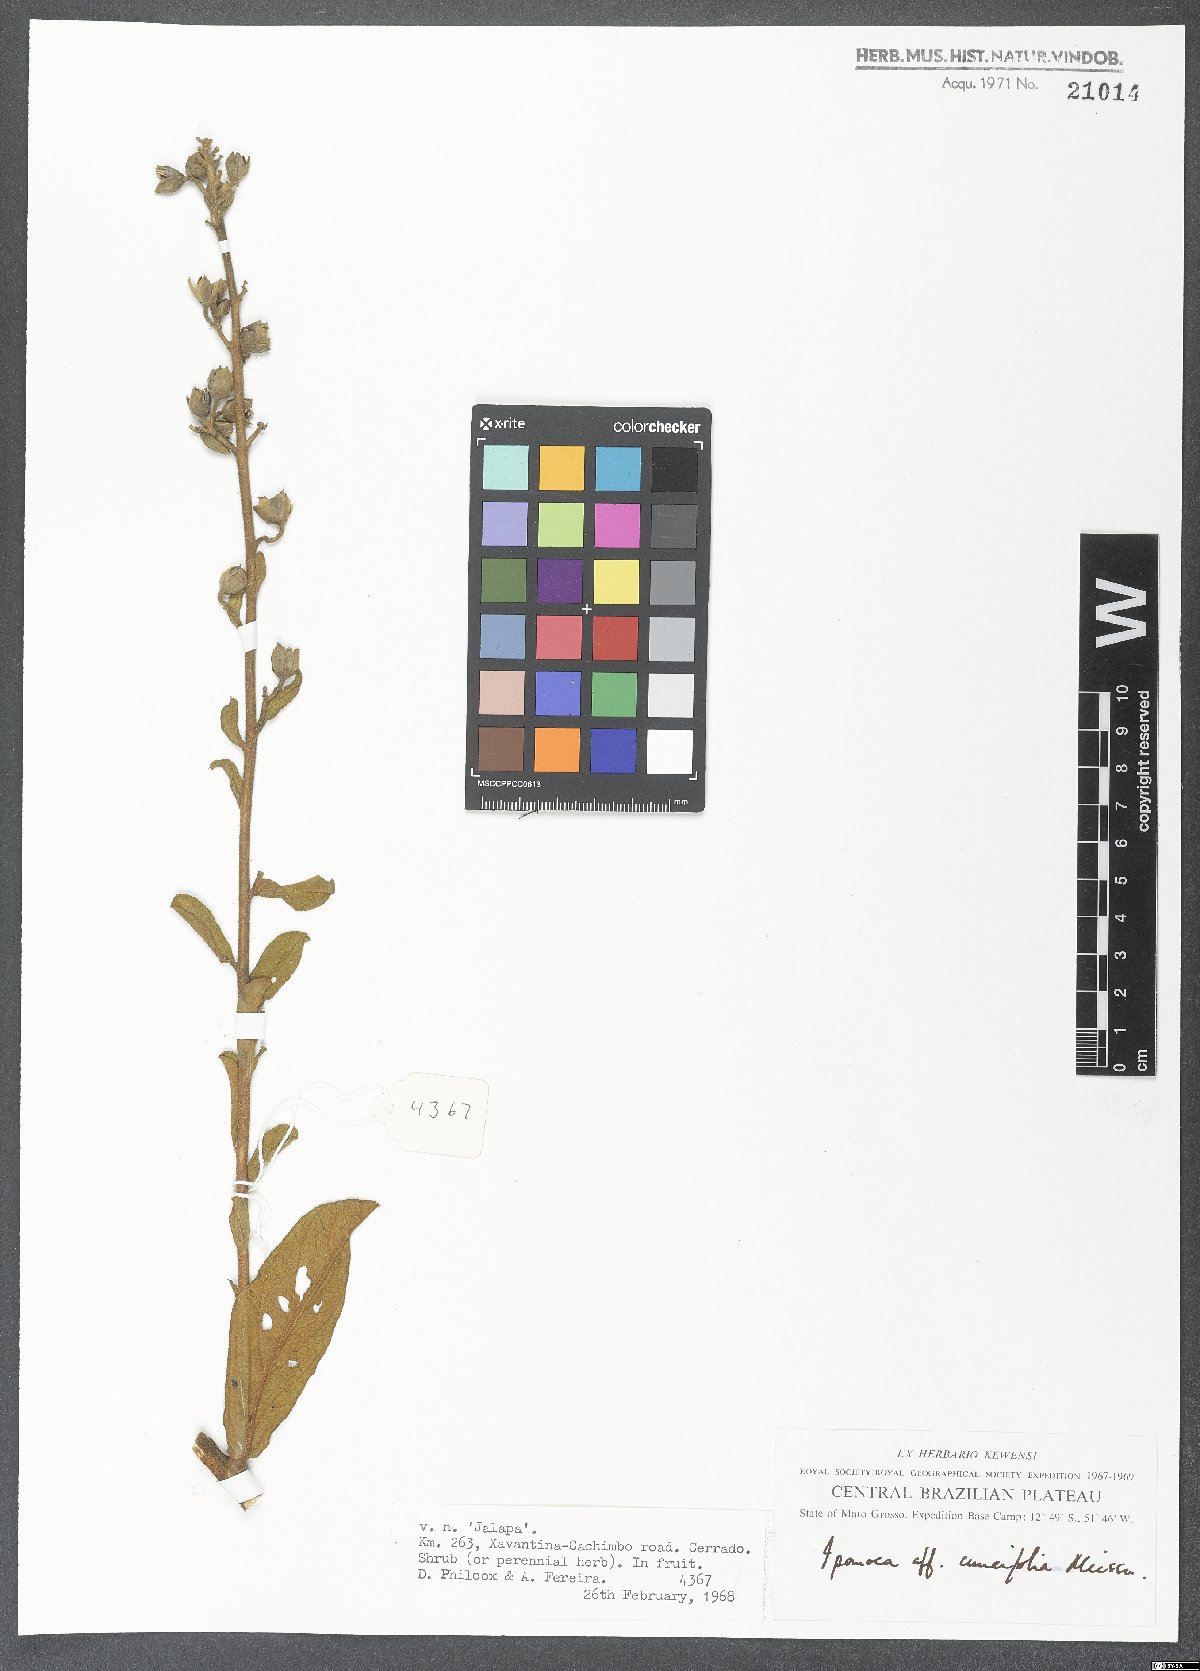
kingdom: Plantae
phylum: Tracheophyta
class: Magnoliopsida
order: Solanales
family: Convolvulaceae
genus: Ipomoea
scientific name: Ipomoea cuneifolia
